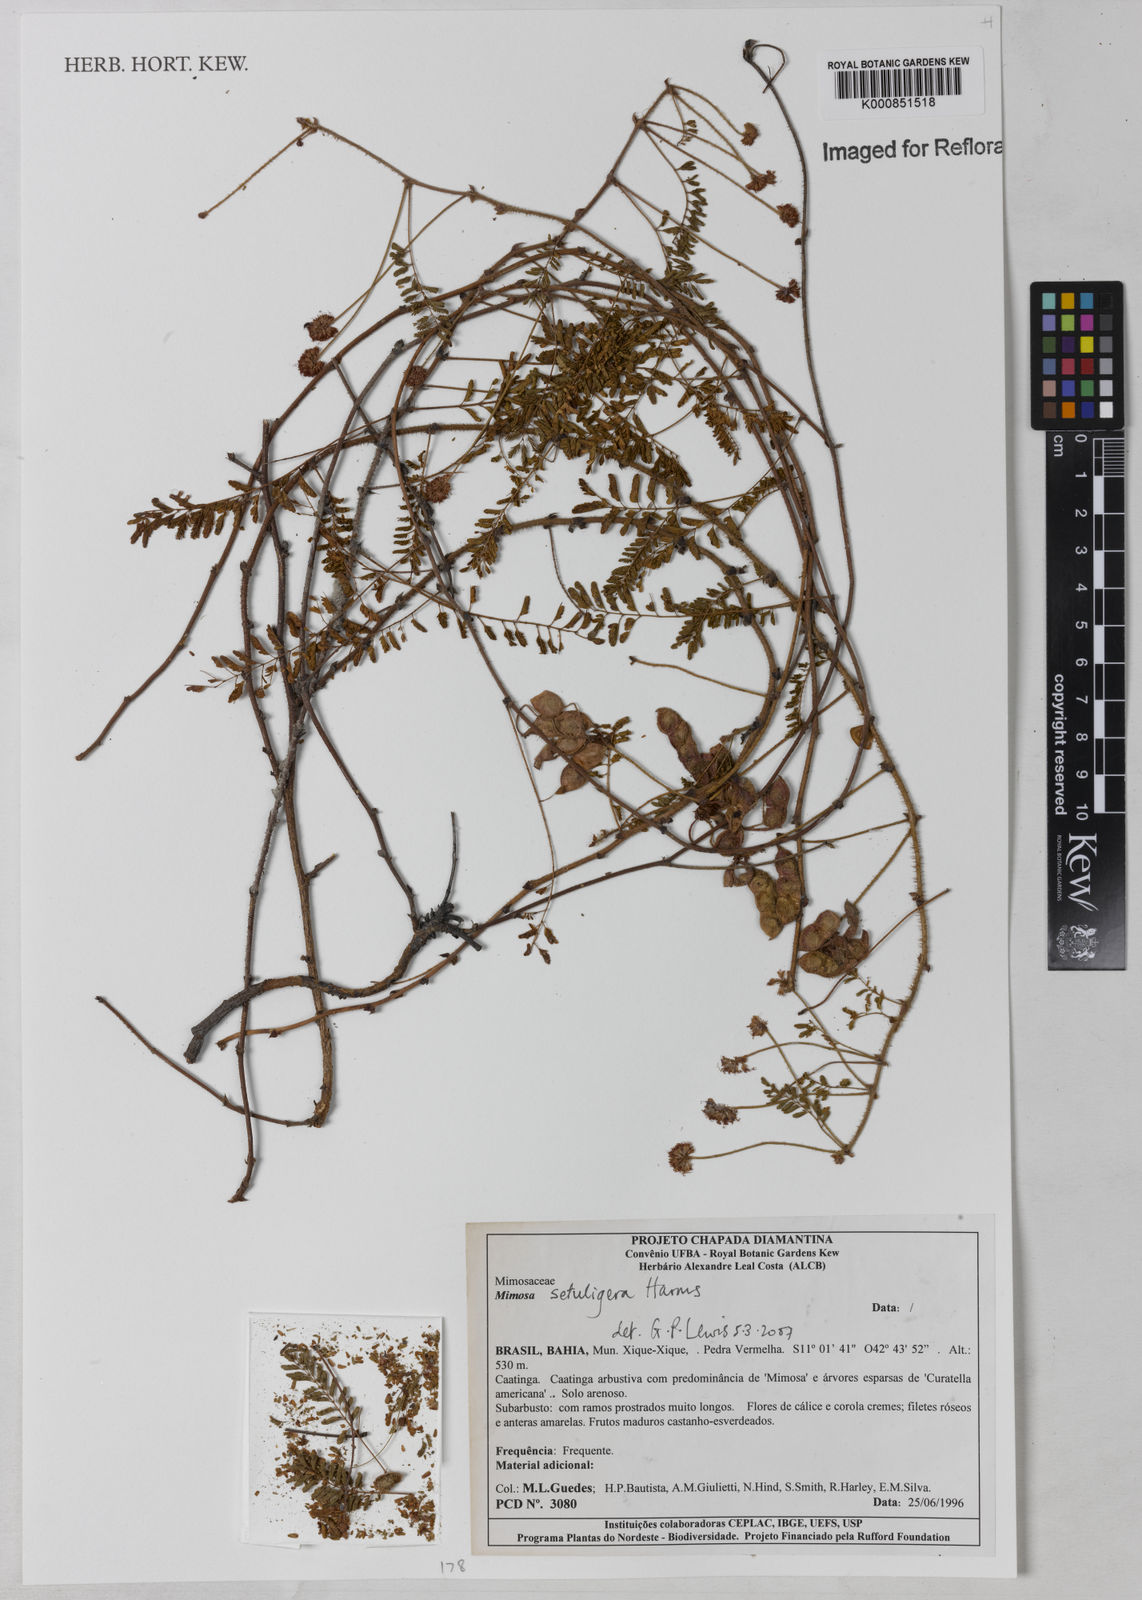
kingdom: Plantae
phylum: Tracheophyta
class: Magnoliopsida
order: Fabales
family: Fabaceae
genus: Mimosa
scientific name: Mimosa setuligera
